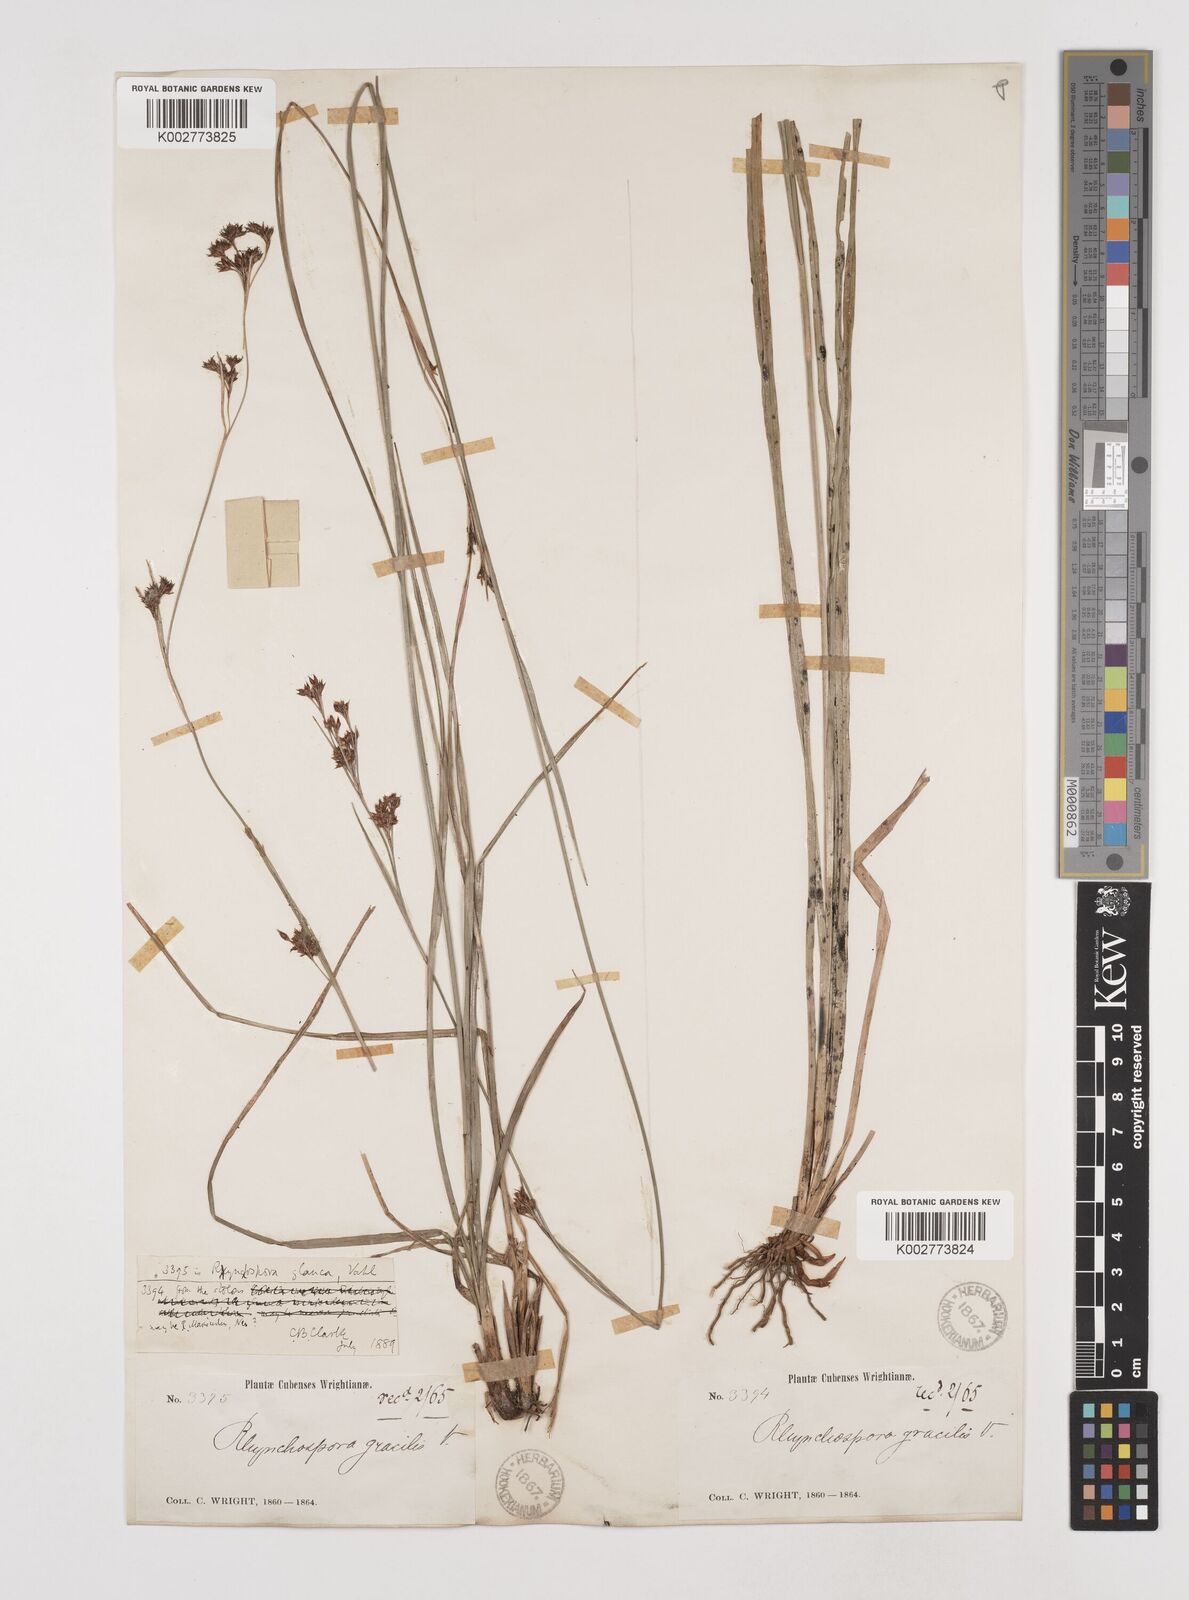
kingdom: Plantae
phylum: Tracheophyta
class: Liliopsida
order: Poales
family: Cyperaceae
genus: Rhynchospora
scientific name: Rhynchospora rugosa
